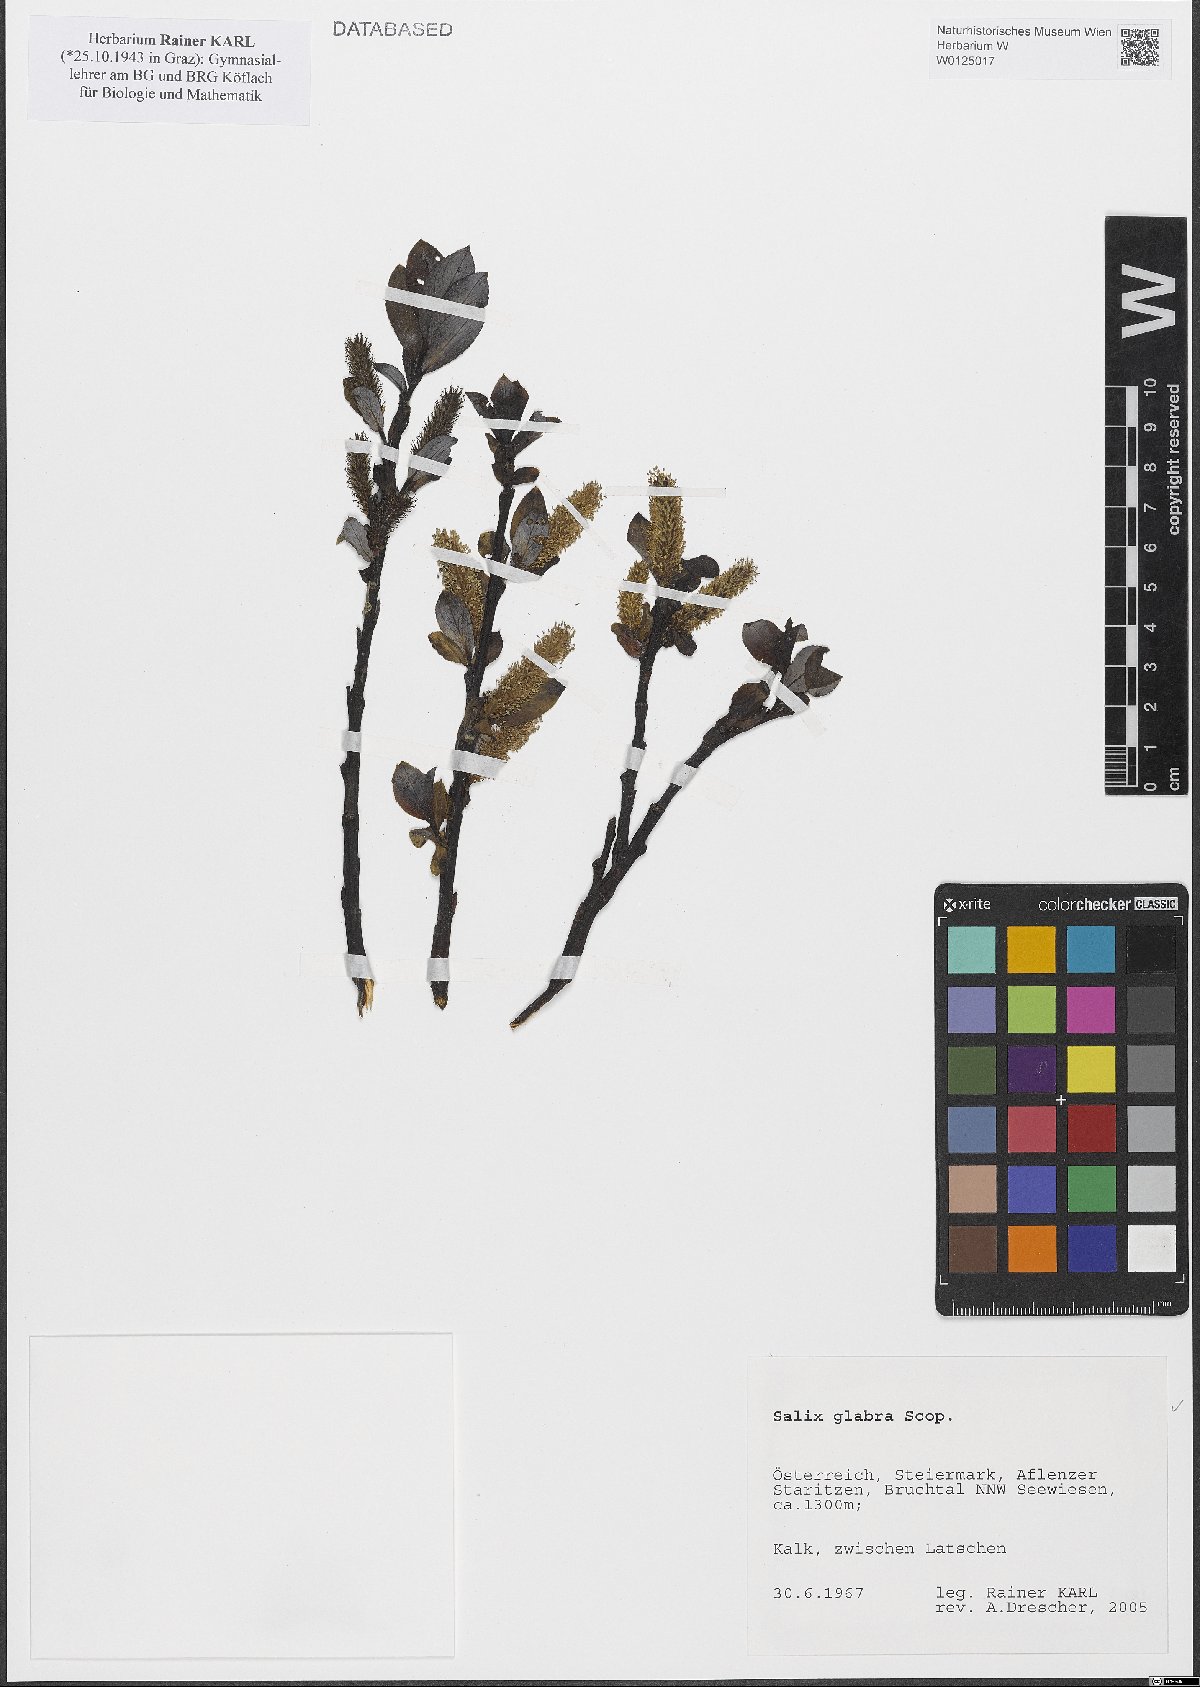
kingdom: Plantae
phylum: Tracheophyta
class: Magnoliopsida
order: Malpighiales
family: Salicaceae
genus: Salix
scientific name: Salix glabra
